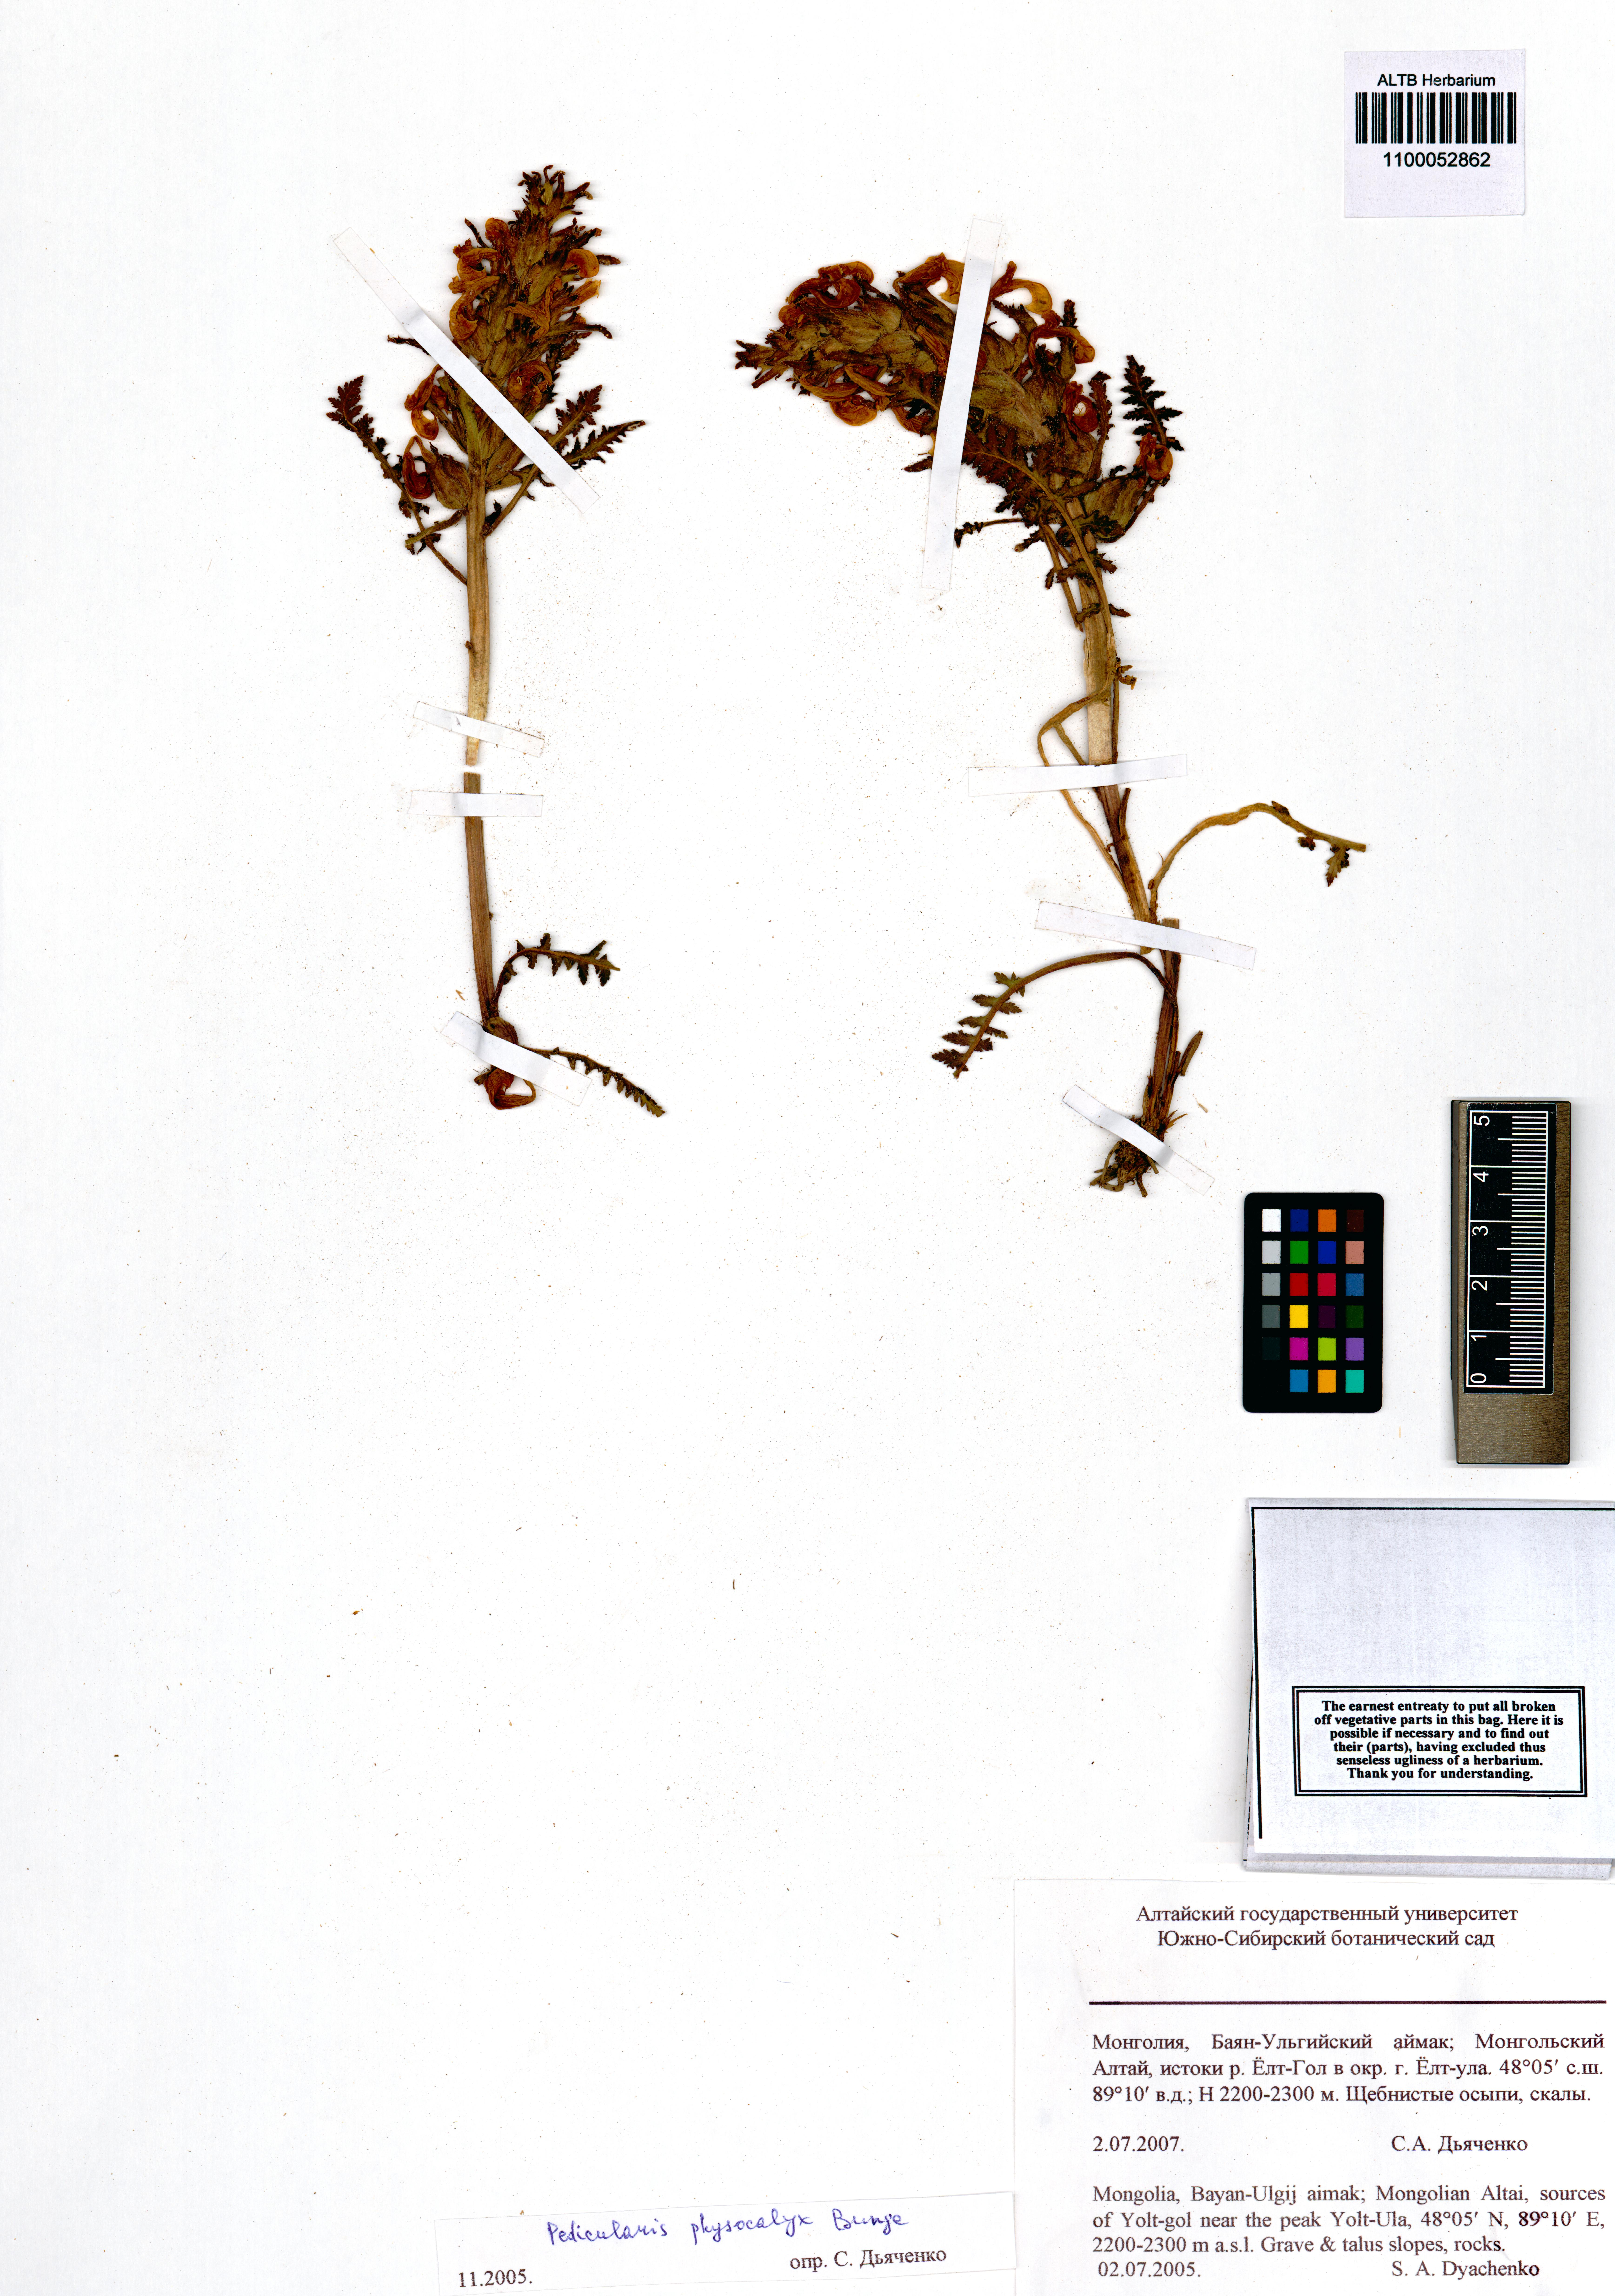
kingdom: Plantae
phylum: Tracheophyta
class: Magnoliopsida
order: Lamiales
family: Orobanchaceae
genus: Pedicularis
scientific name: Pedicularis physocalyx
